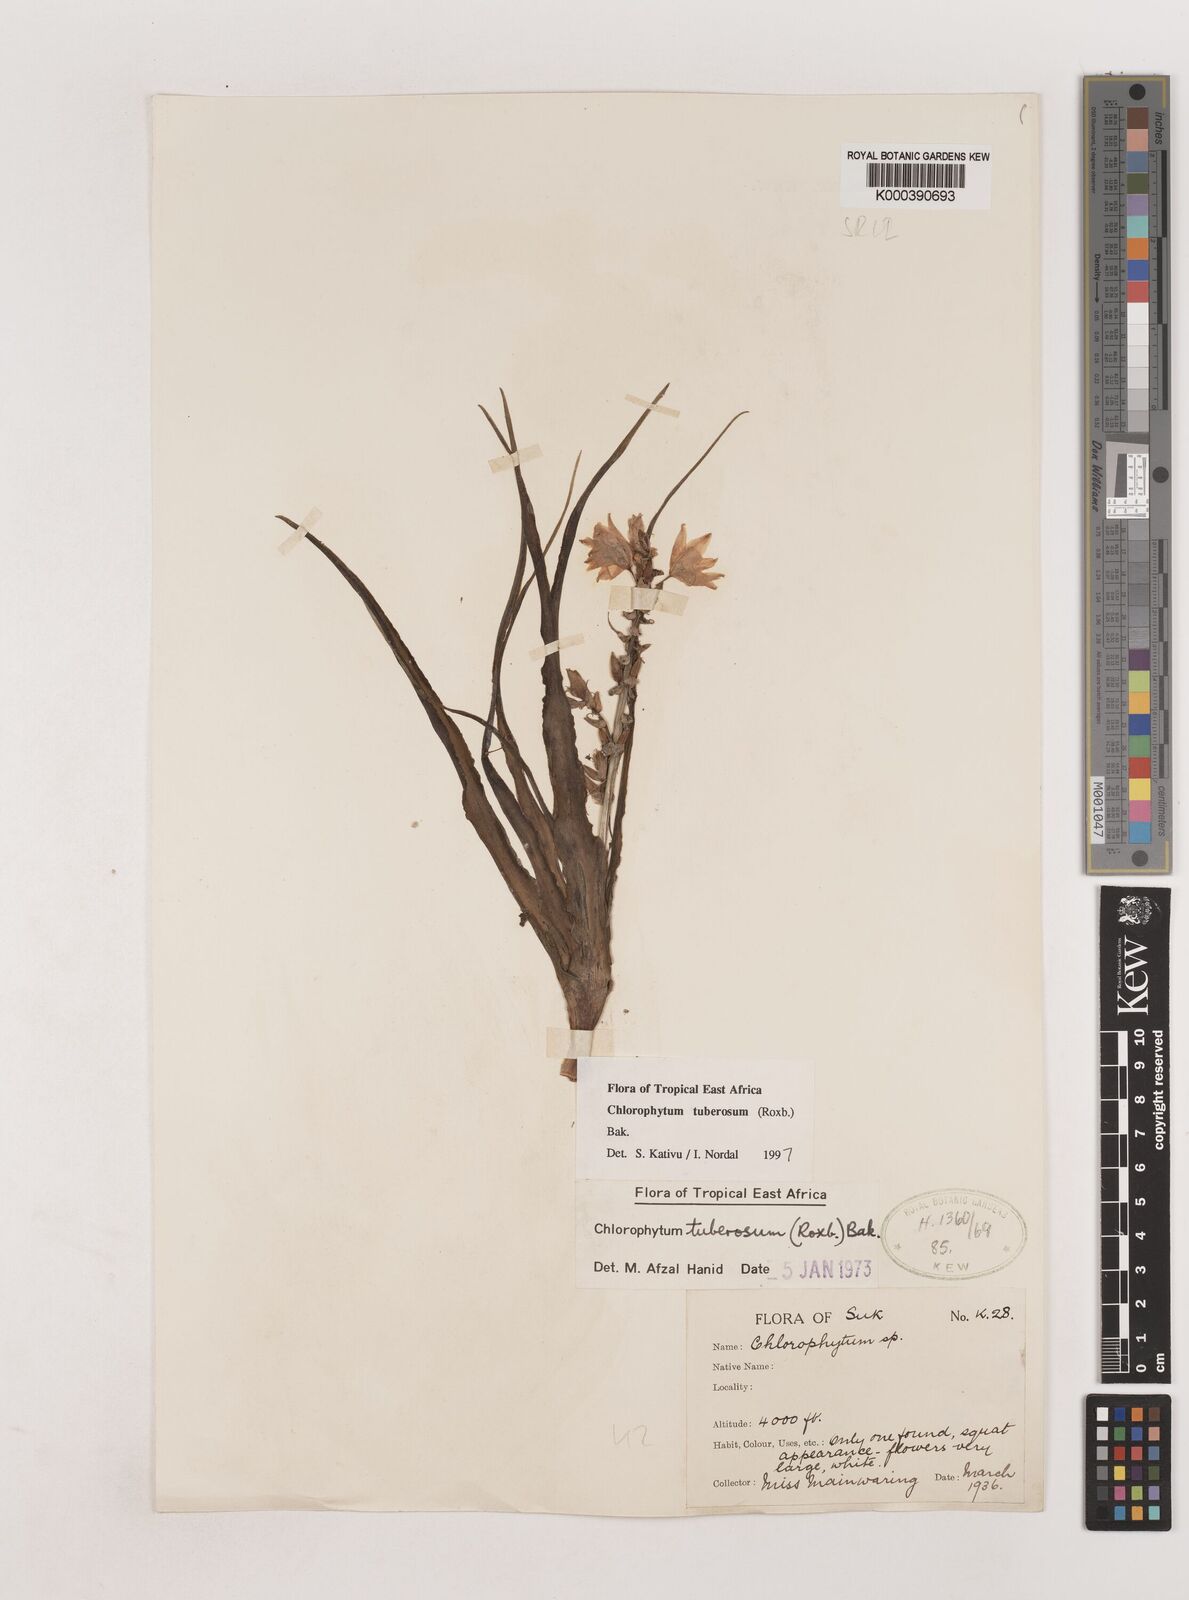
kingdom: Plantae
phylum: Tracheophyta
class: Liliopsida
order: Asparagales
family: Asparagaceae
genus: Chlorophytum
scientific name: Chlorophytum tuberosum
